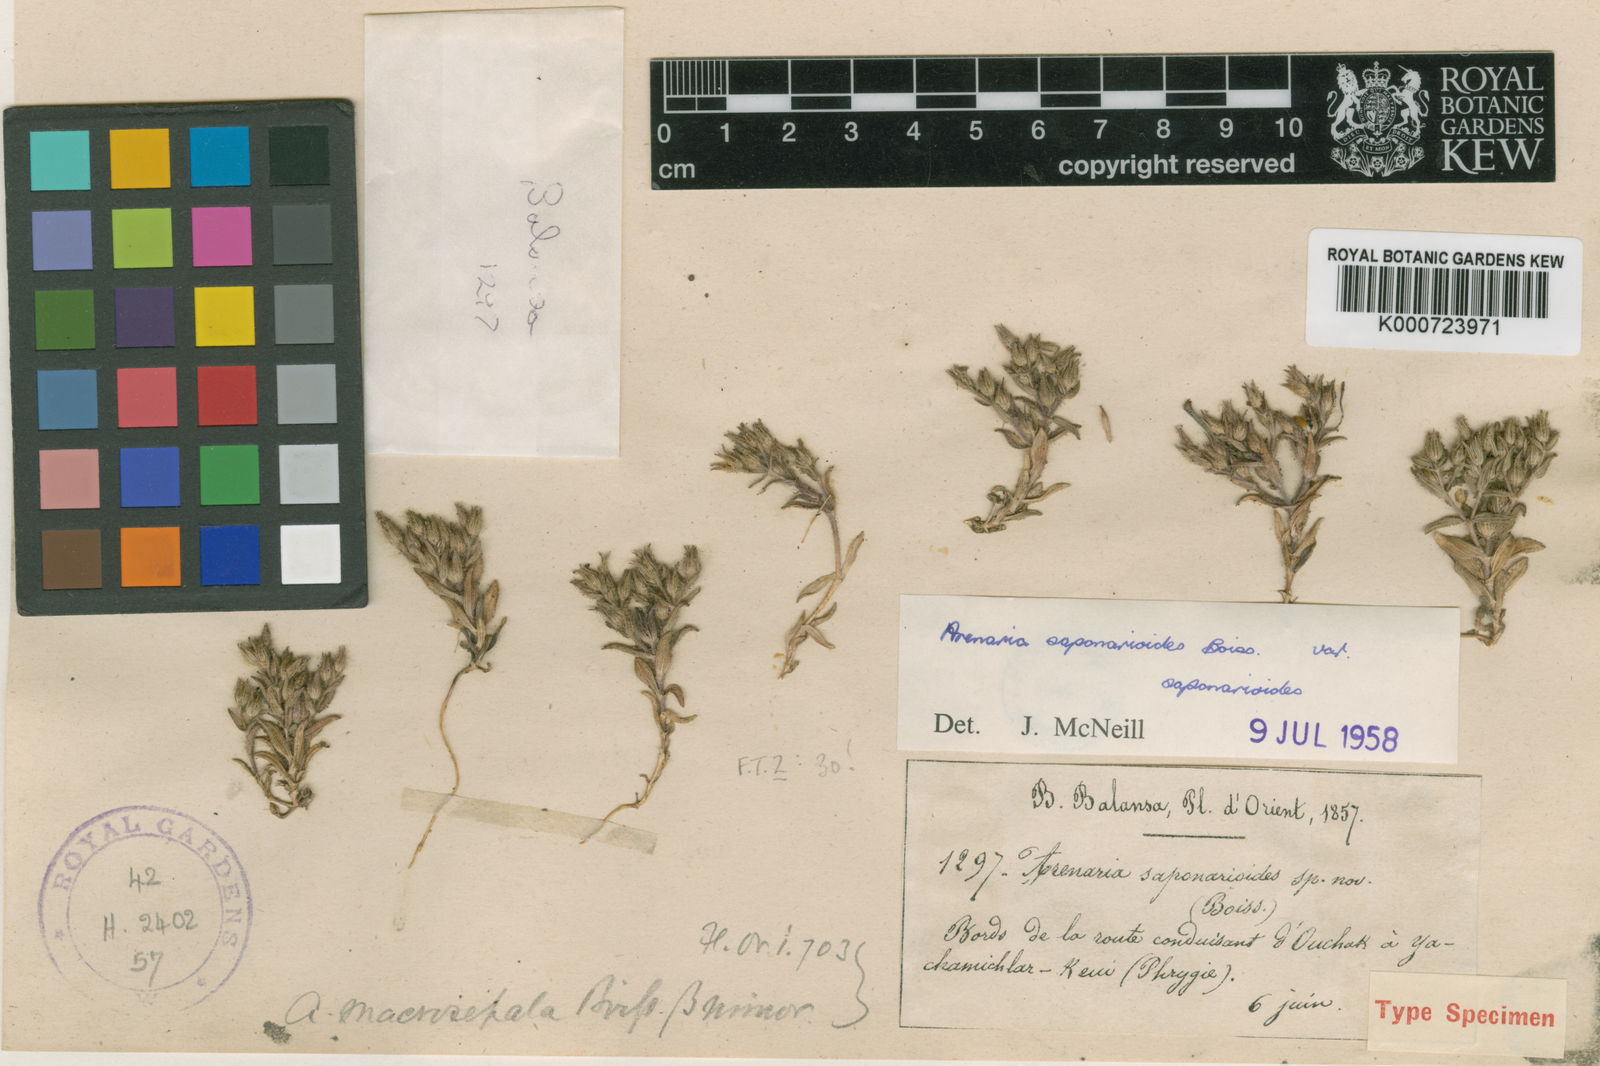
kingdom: Plantae
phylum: Tracheophyta
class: Magnoliopsida
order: Caryophyllales
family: Caryophyllaceae
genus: Arenaria
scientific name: Arenaria saponarioides
